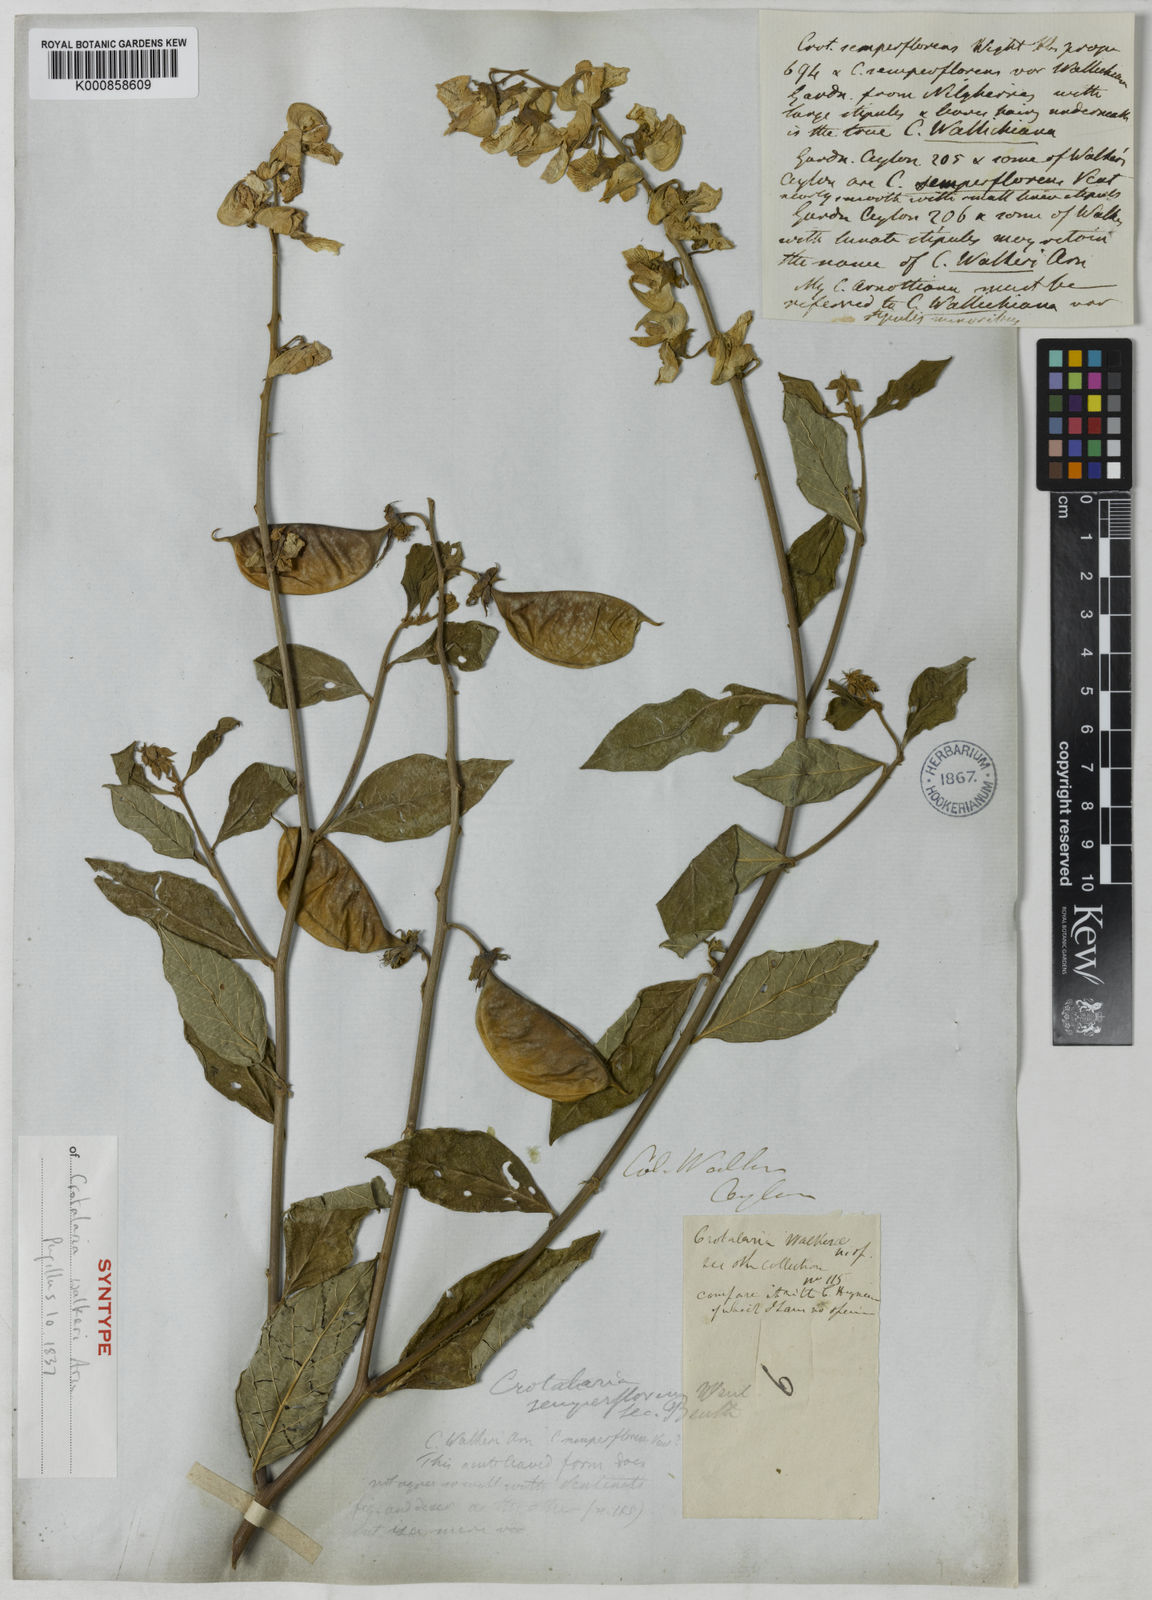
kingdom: Plantae
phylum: Tracheophyta
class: Magnoliopsida
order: Fabales
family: Fabaceae
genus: Crotalaria
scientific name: Crotalaria walkeri
